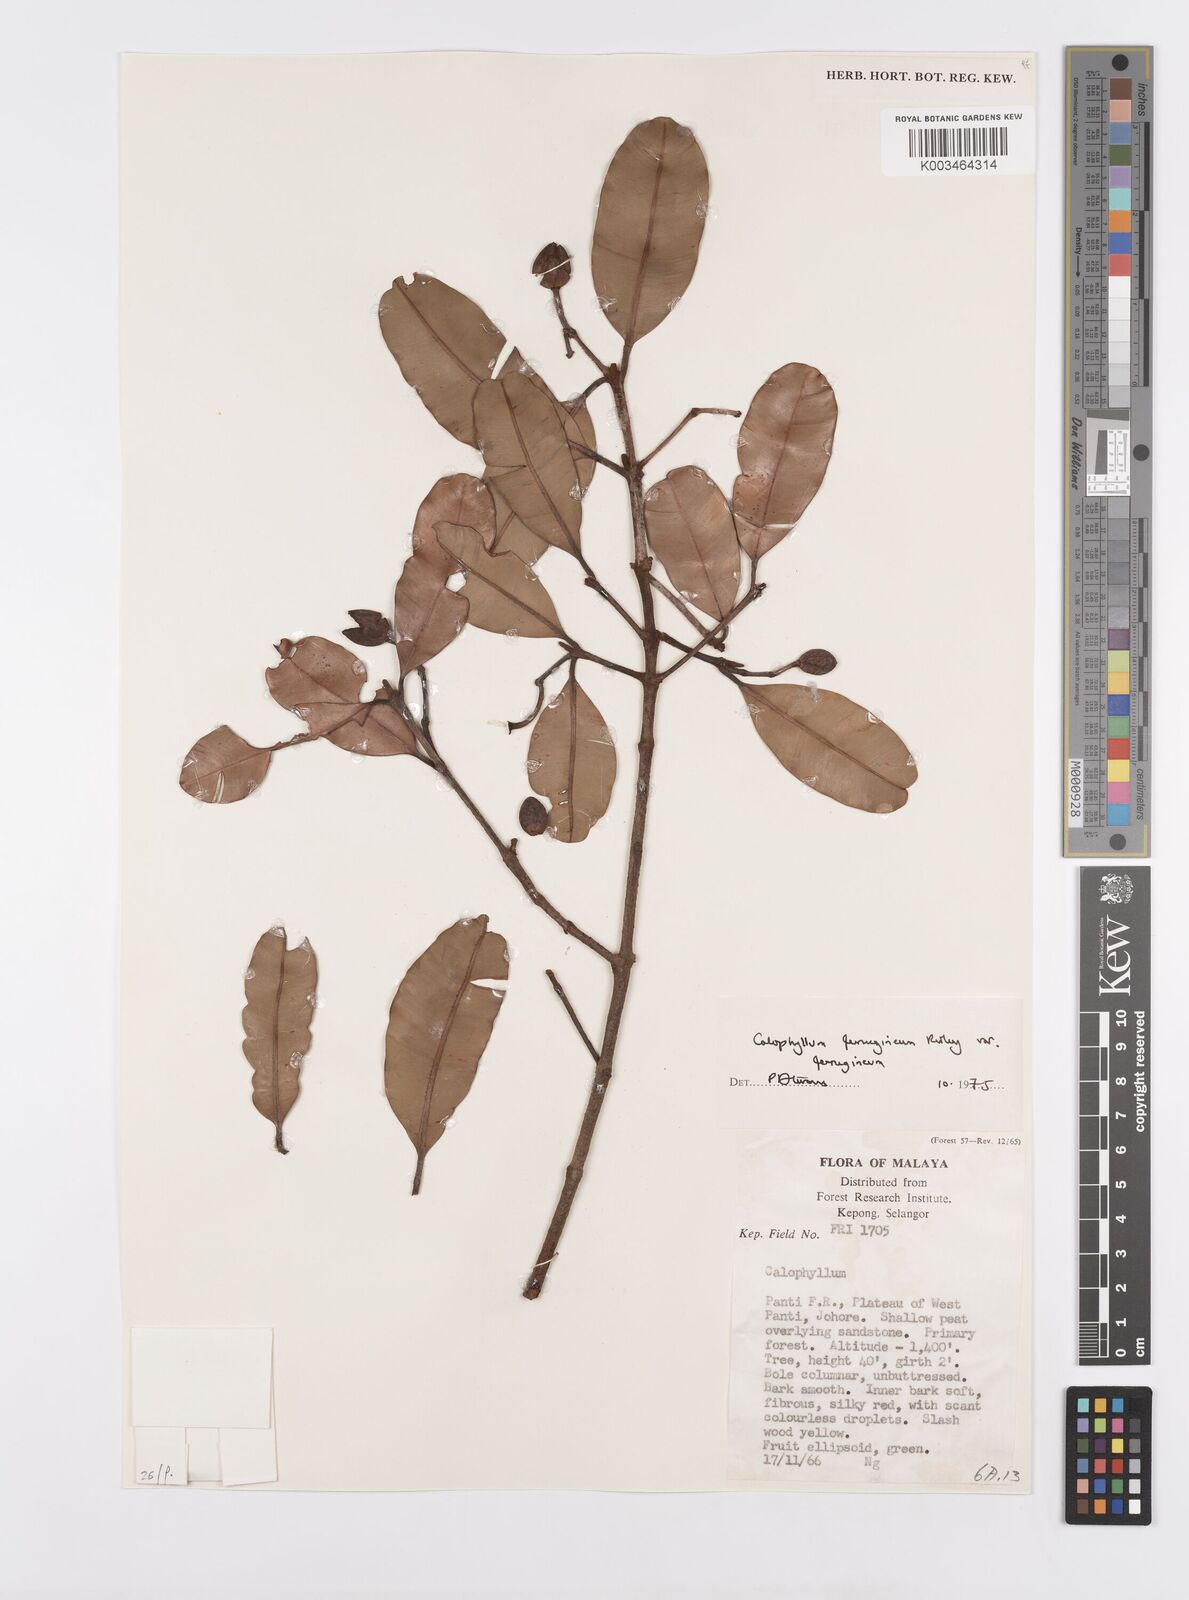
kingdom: Plantae
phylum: Tracheophyta
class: Magnoliopsida
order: Malpighiales
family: Calophyllaceae
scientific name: Calophyllaceae
